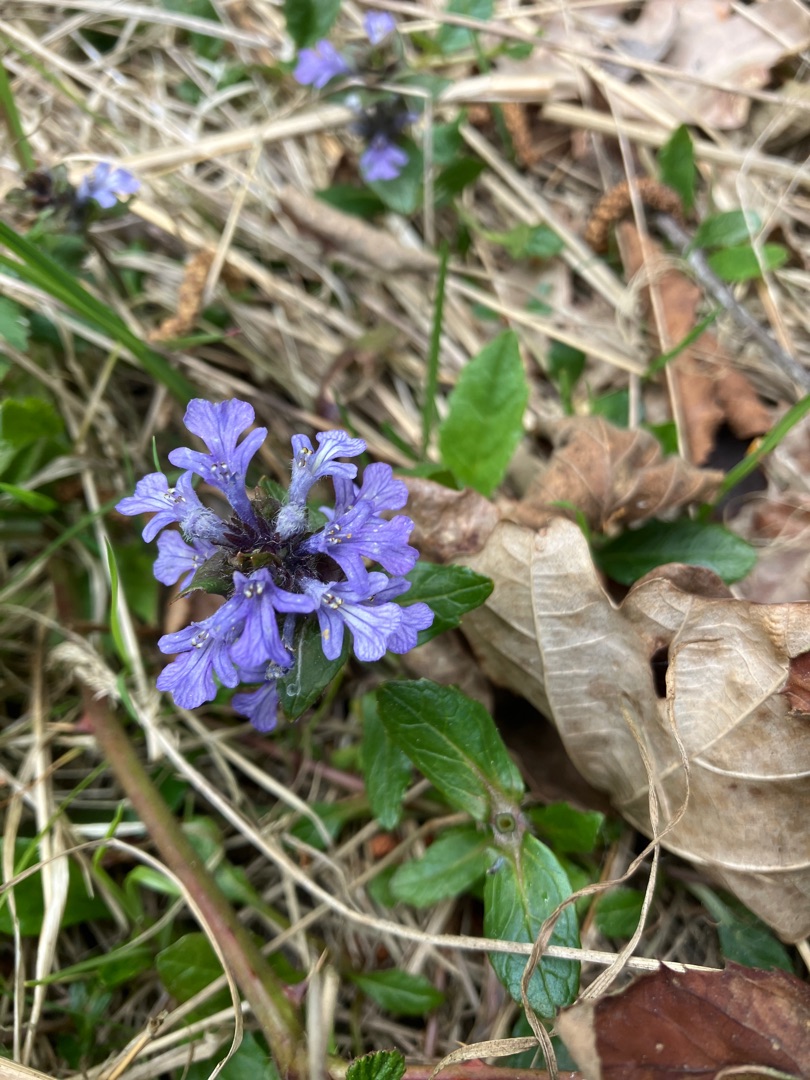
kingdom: Plantae
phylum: Tracheophyta
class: Magnoliopsida
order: Lamiales
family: Lamiaceae
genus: Ajuga
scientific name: Ajuga reptans
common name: Krybende læbeløs
